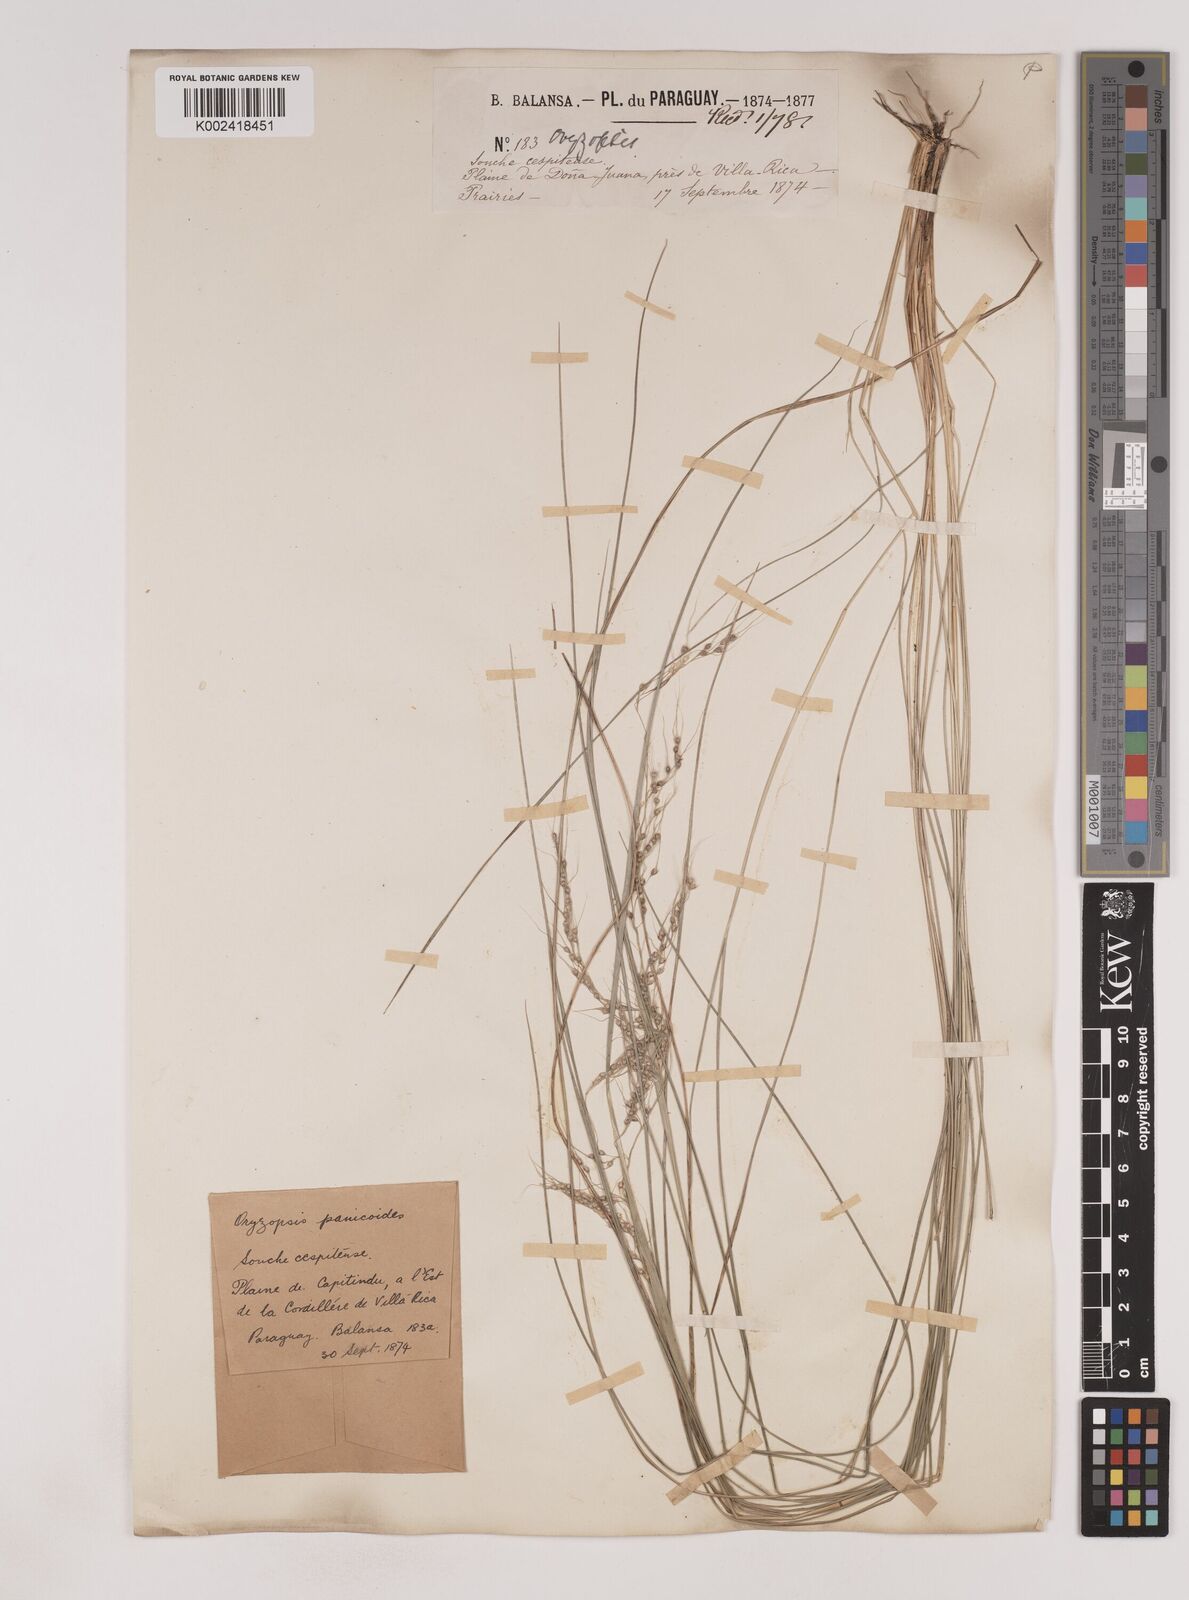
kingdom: Plantae
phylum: Tracheophyta
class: Liliopsida
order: Poales
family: Poaceae
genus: Piptochaetium
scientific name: Piptochaetium montevidense
